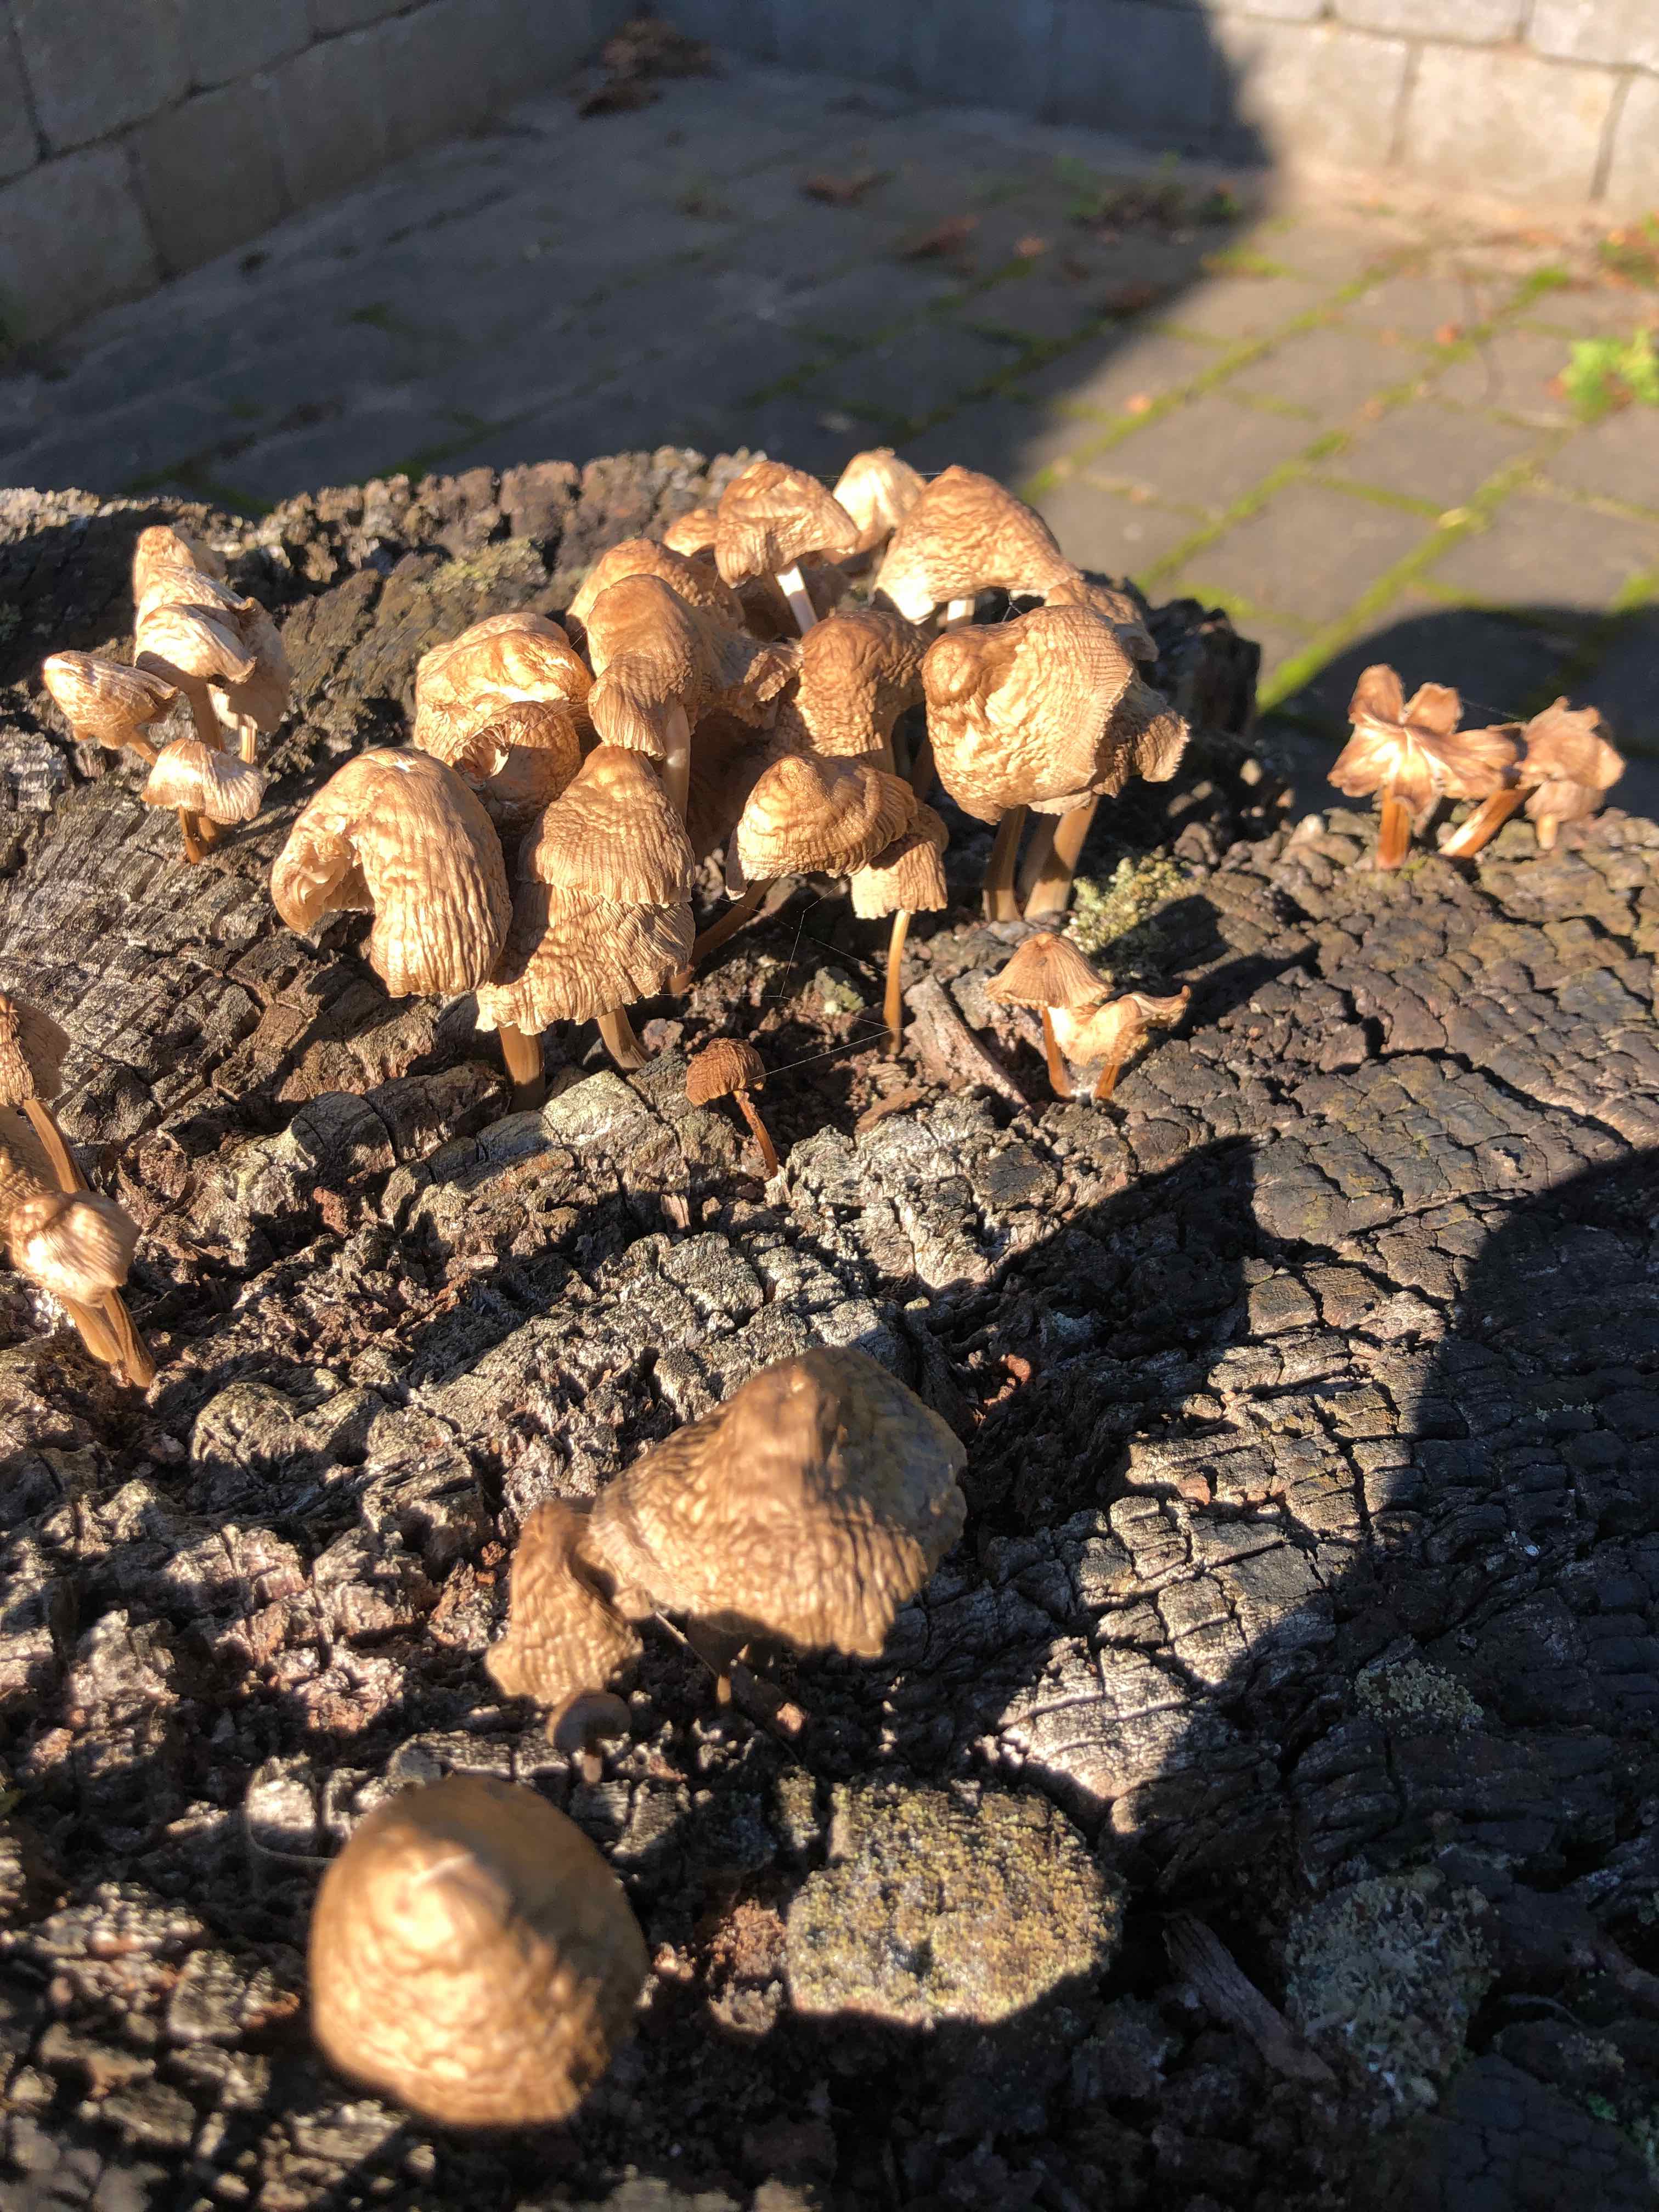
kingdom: Fungi
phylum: Basidiomycota
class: Agaricomycetes
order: Agaricales
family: Mycenaceae
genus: Mycena
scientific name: Mycena
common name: huesvamp
